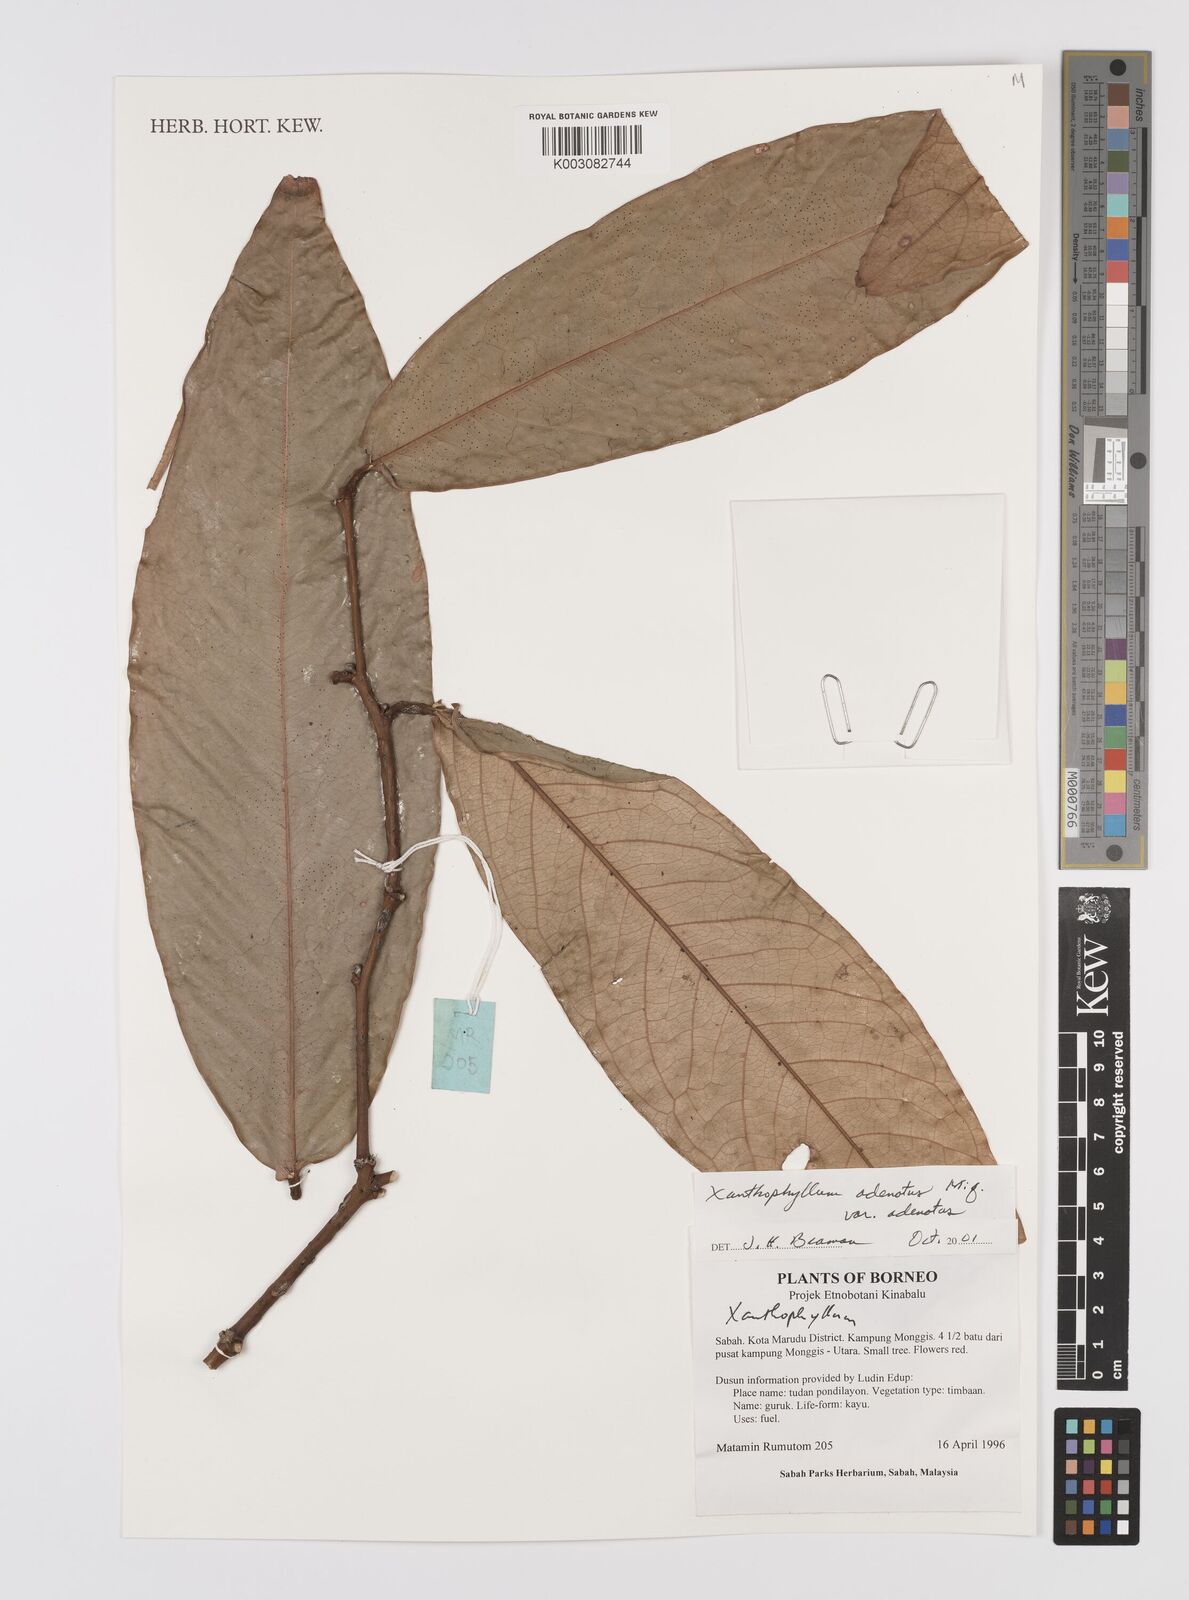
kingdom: Plantae
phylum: Tracheophyta
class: Magnoliopsida
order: Fabales
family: Polygalaceae
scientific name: Polygalaceae
